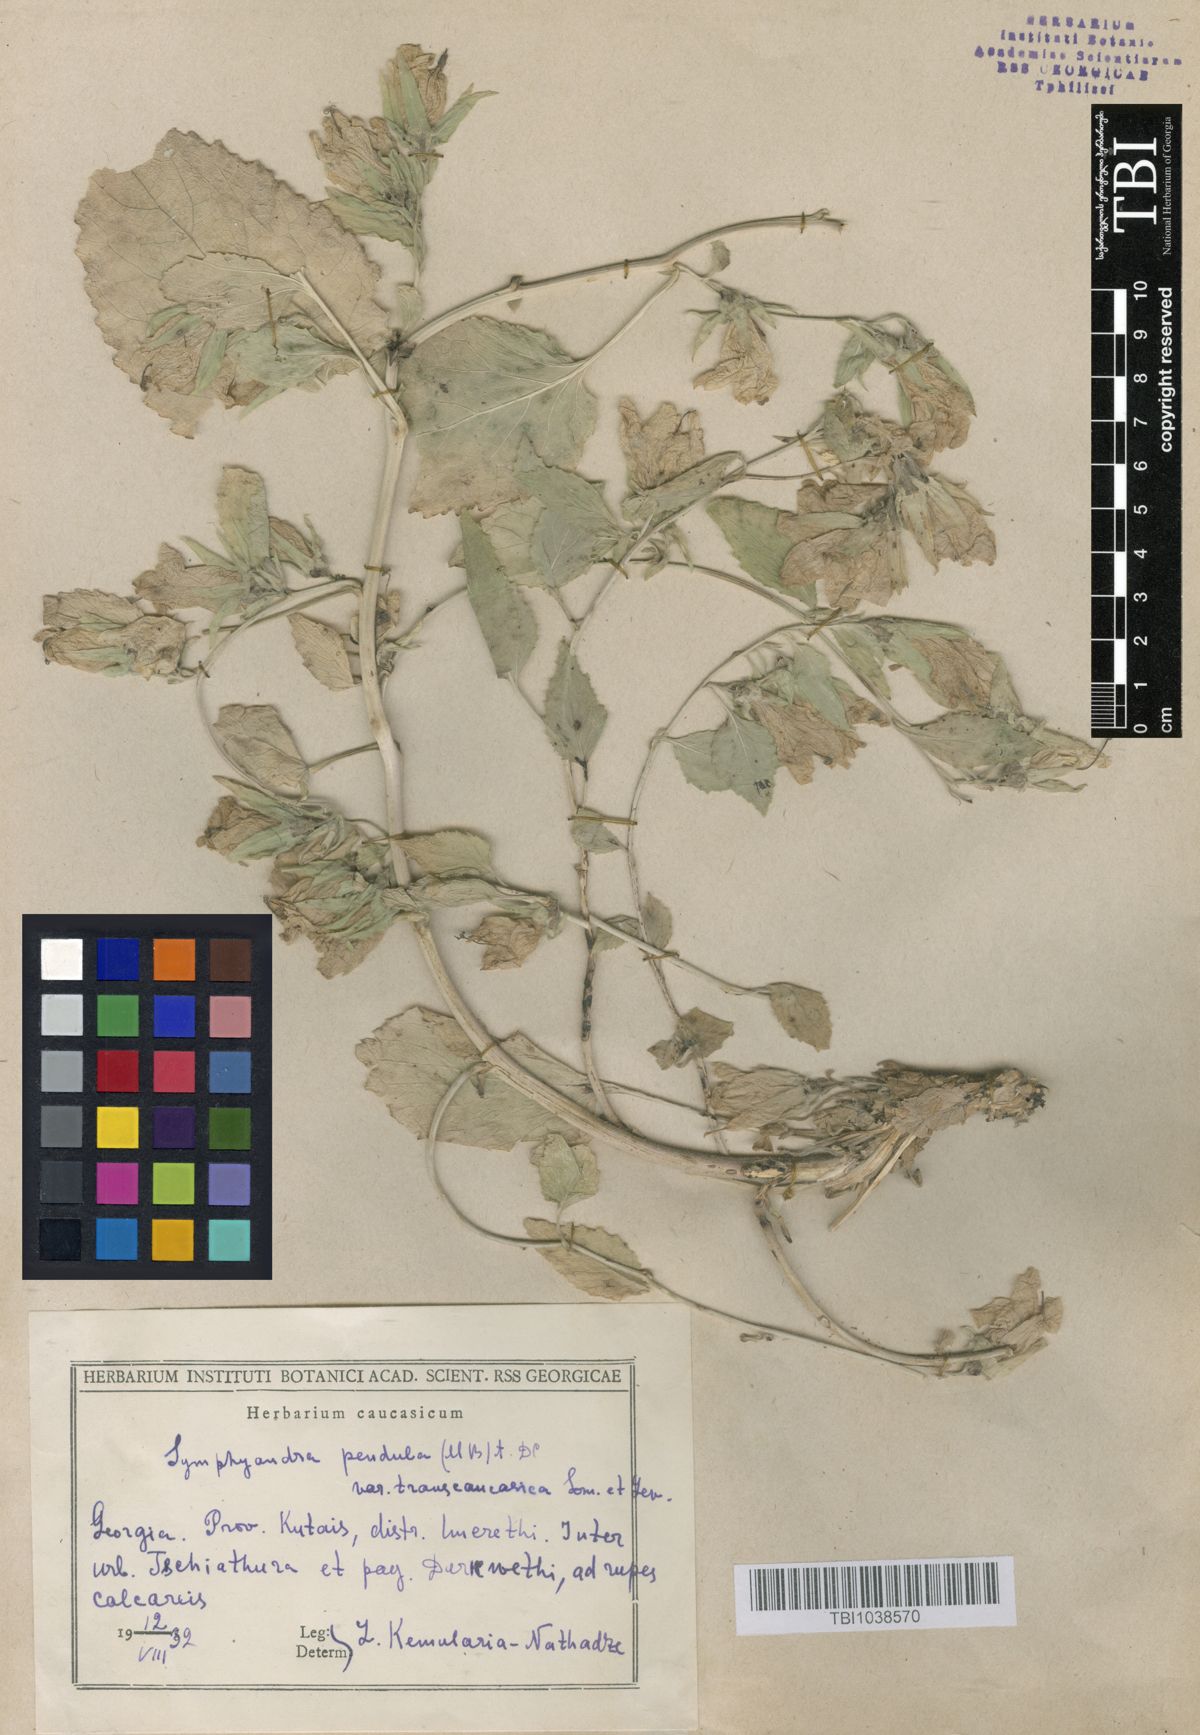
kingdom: Plantae
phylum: Tracheophyta
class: Magnoliopsida
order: Asterales
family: Campanulaceae
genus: Campanula
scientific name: Campanula pendula
